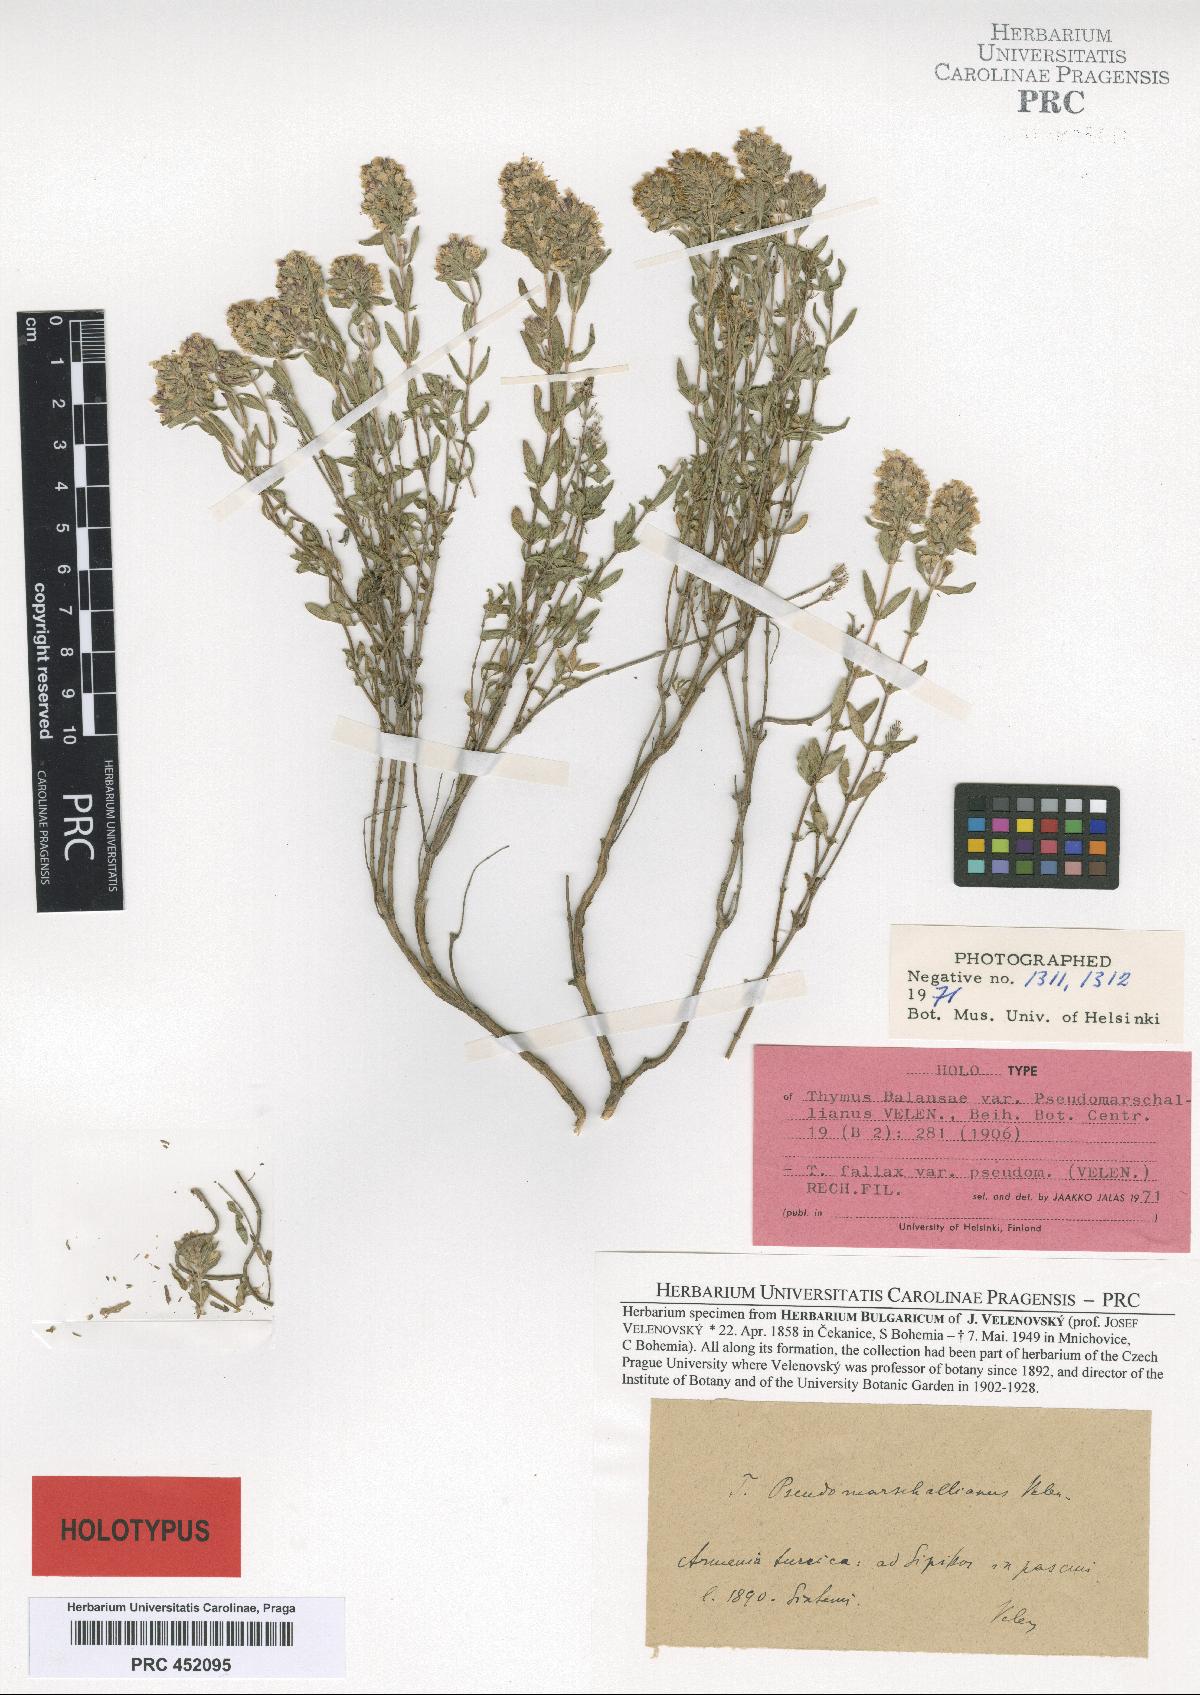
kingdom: Plantae
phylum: Tracheophyta
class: Magnoliopsida
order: Lamiales
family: Lamiaceae
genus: Thymus
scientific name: Thymus fallax
